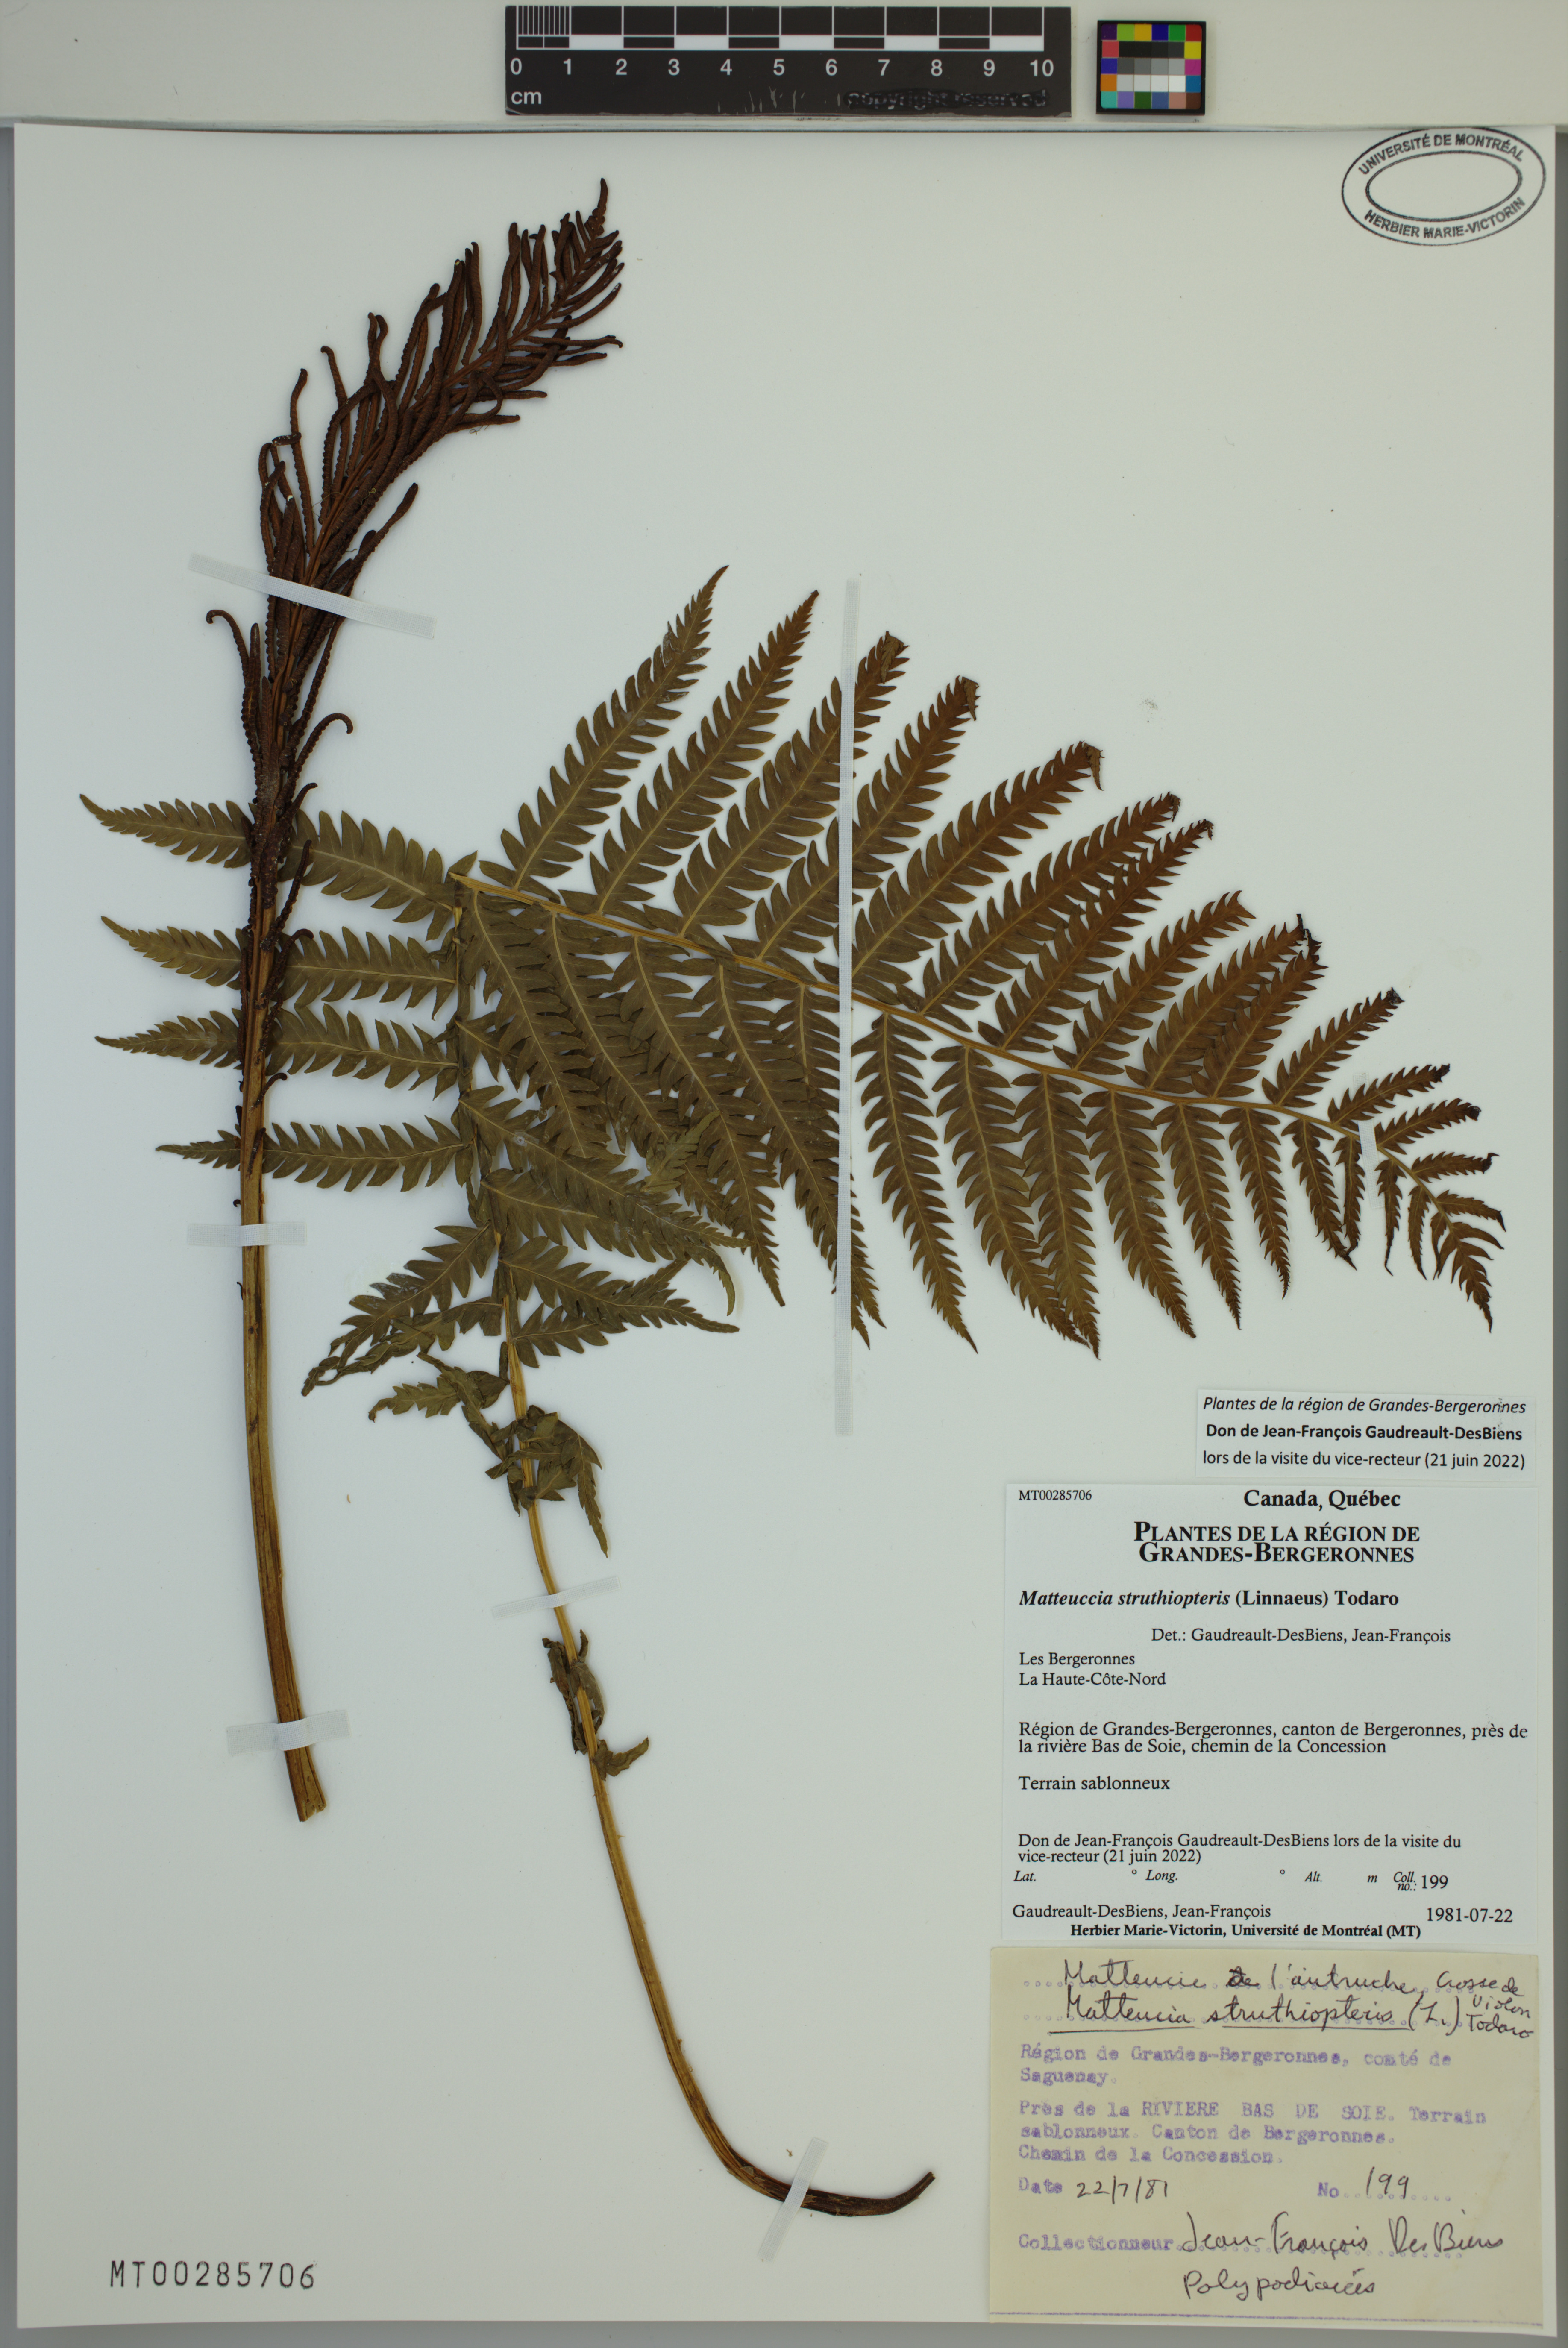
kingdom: Plantae
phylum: Tracheophyta
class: Polypodiopsida
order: Polypodiales
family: Onocleaceae
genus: Matteuccia
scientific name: Matteuccia struthiopteris
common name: Ostrich fern
